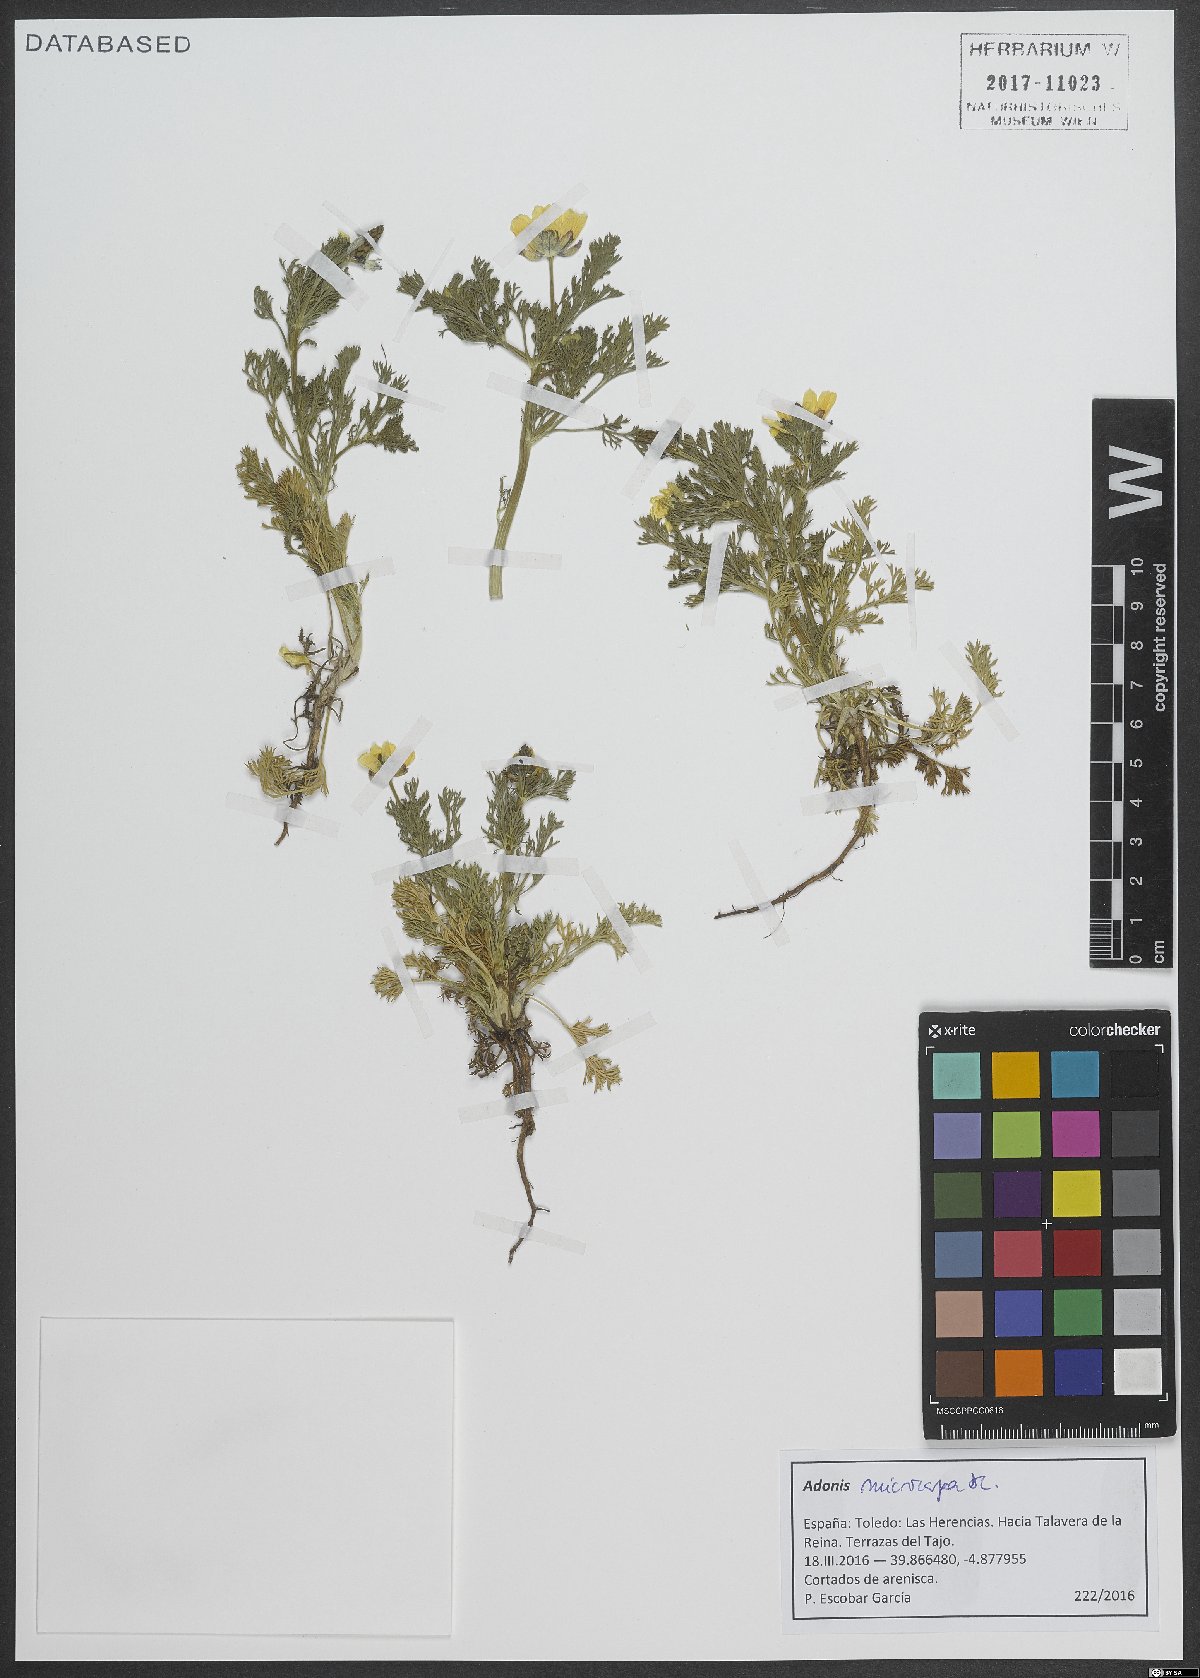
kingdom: Plantae
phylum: Tracheophyta
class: Magnoliopsida
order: Ranunculales
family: Ranunculaceae
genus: Adonis
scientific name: Adonis microcarpa
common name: Pheasant's-eye
